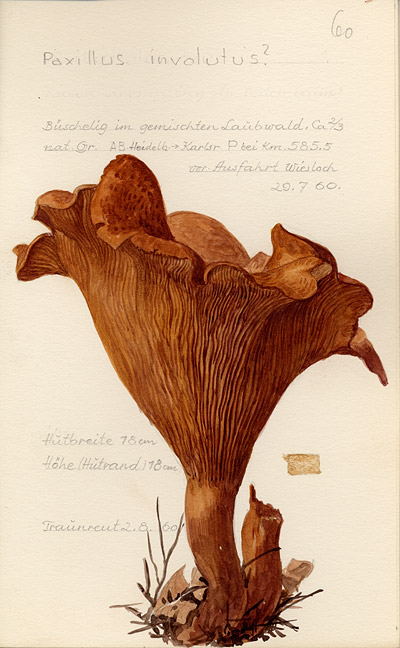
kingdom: Fungi
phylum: Basidiomycota
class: Agaricomycetes
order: Boletales
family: Paxillaceae
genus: Paxillus
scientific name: Paxillus involutus
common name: Brown roll rim
